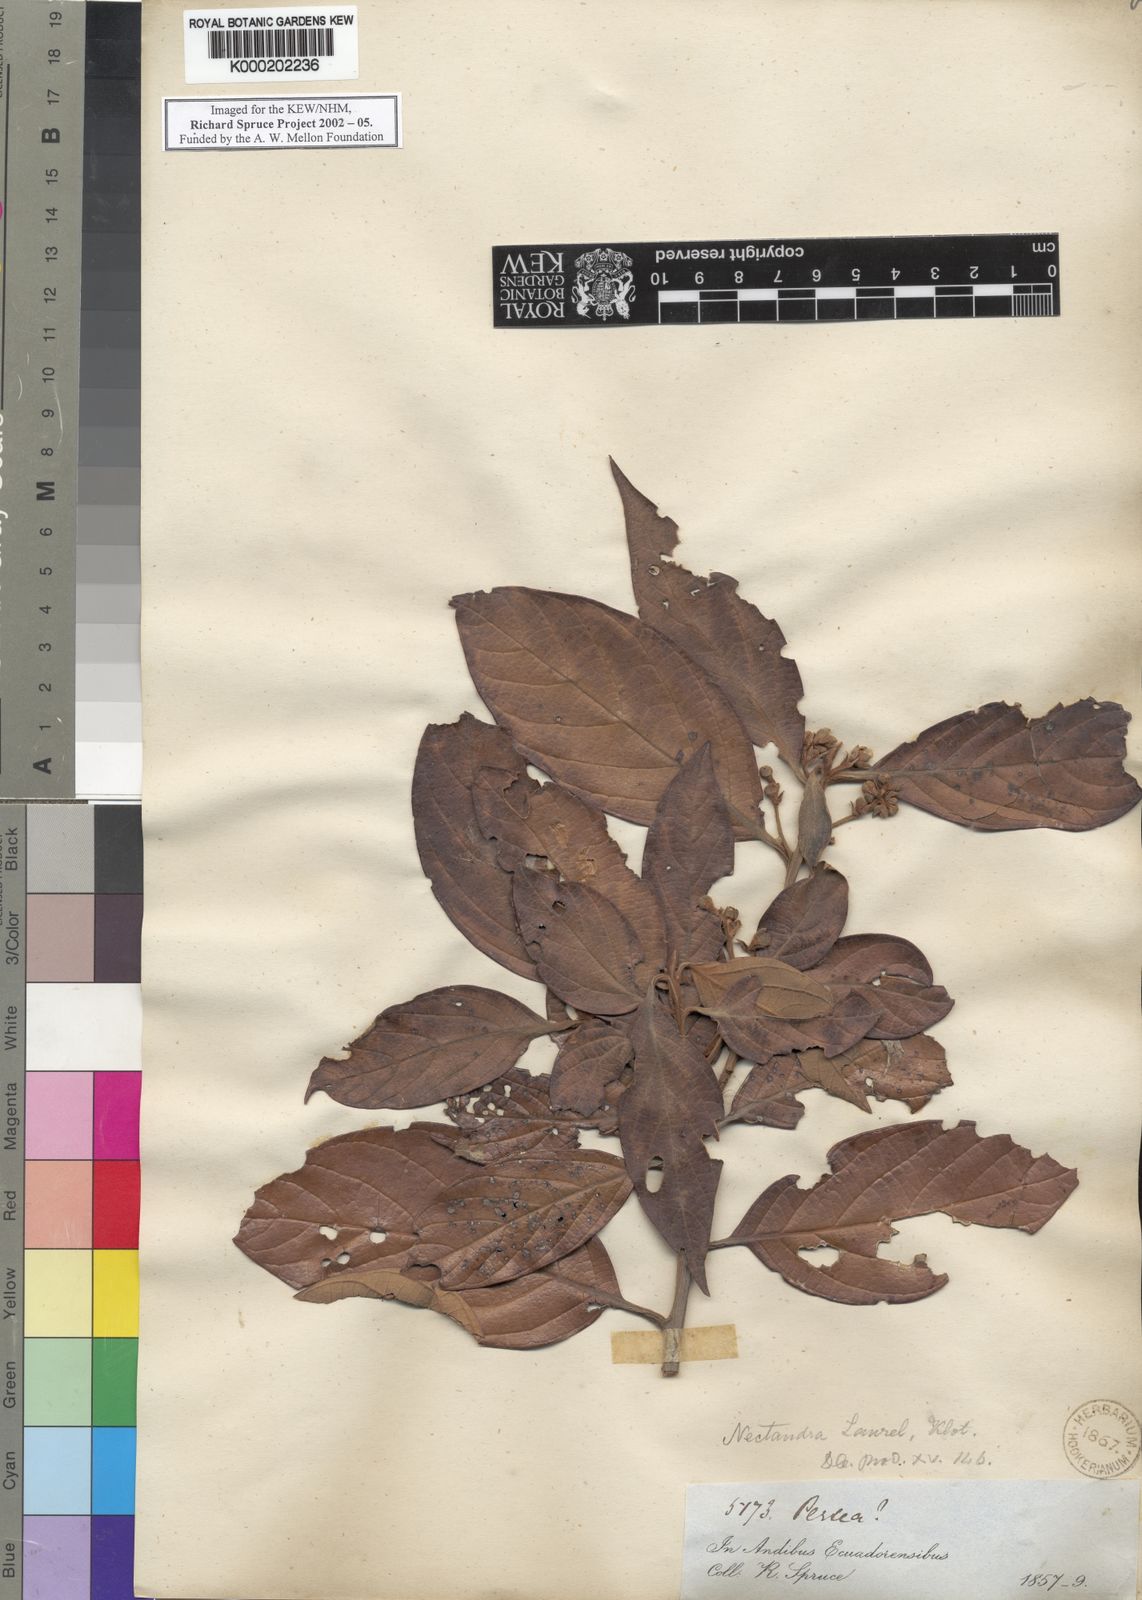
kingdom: Plantae
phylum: Tracheophyta
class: Magnoliopsida
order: Laurales
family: Lauraceae
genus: Nectandra
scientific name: Nectandra
